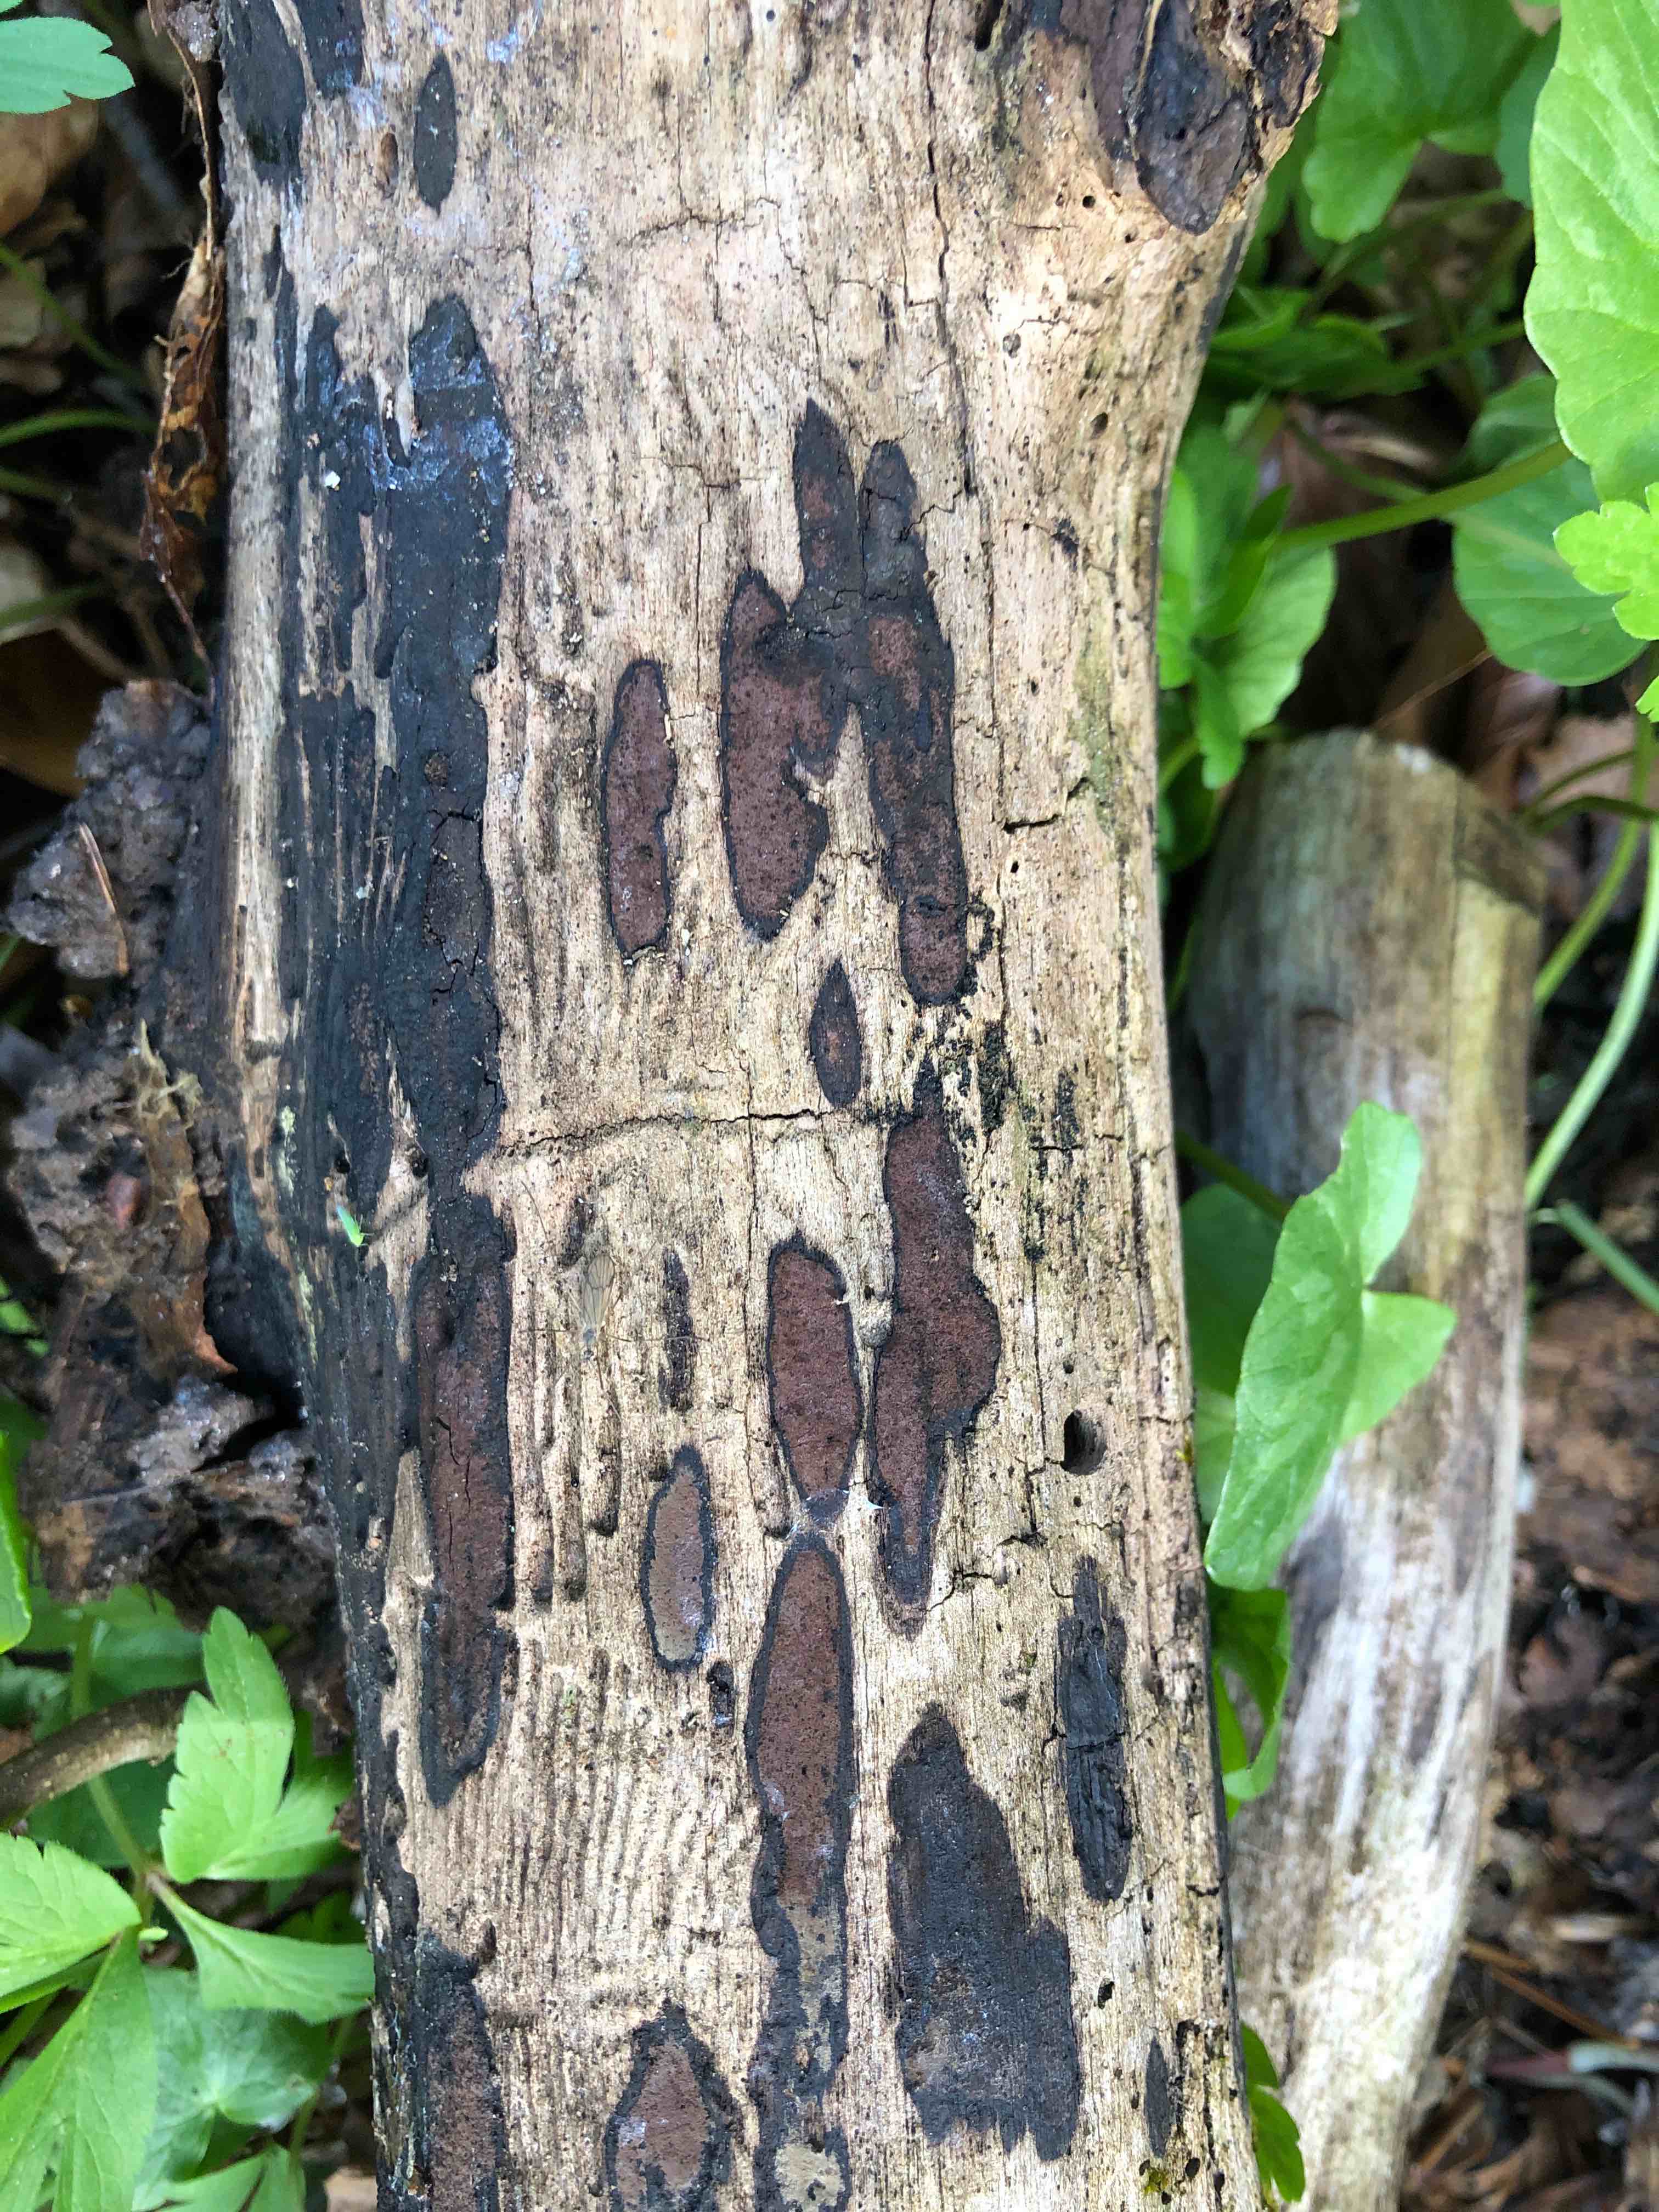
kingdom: Fungi
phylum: Ascomycota
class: Sordariomycetes
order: Xylariales
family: Hypoxylaceae
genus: Hypoxylon
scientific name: Hypoxylon petriniae
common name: nedsænket kulbær
